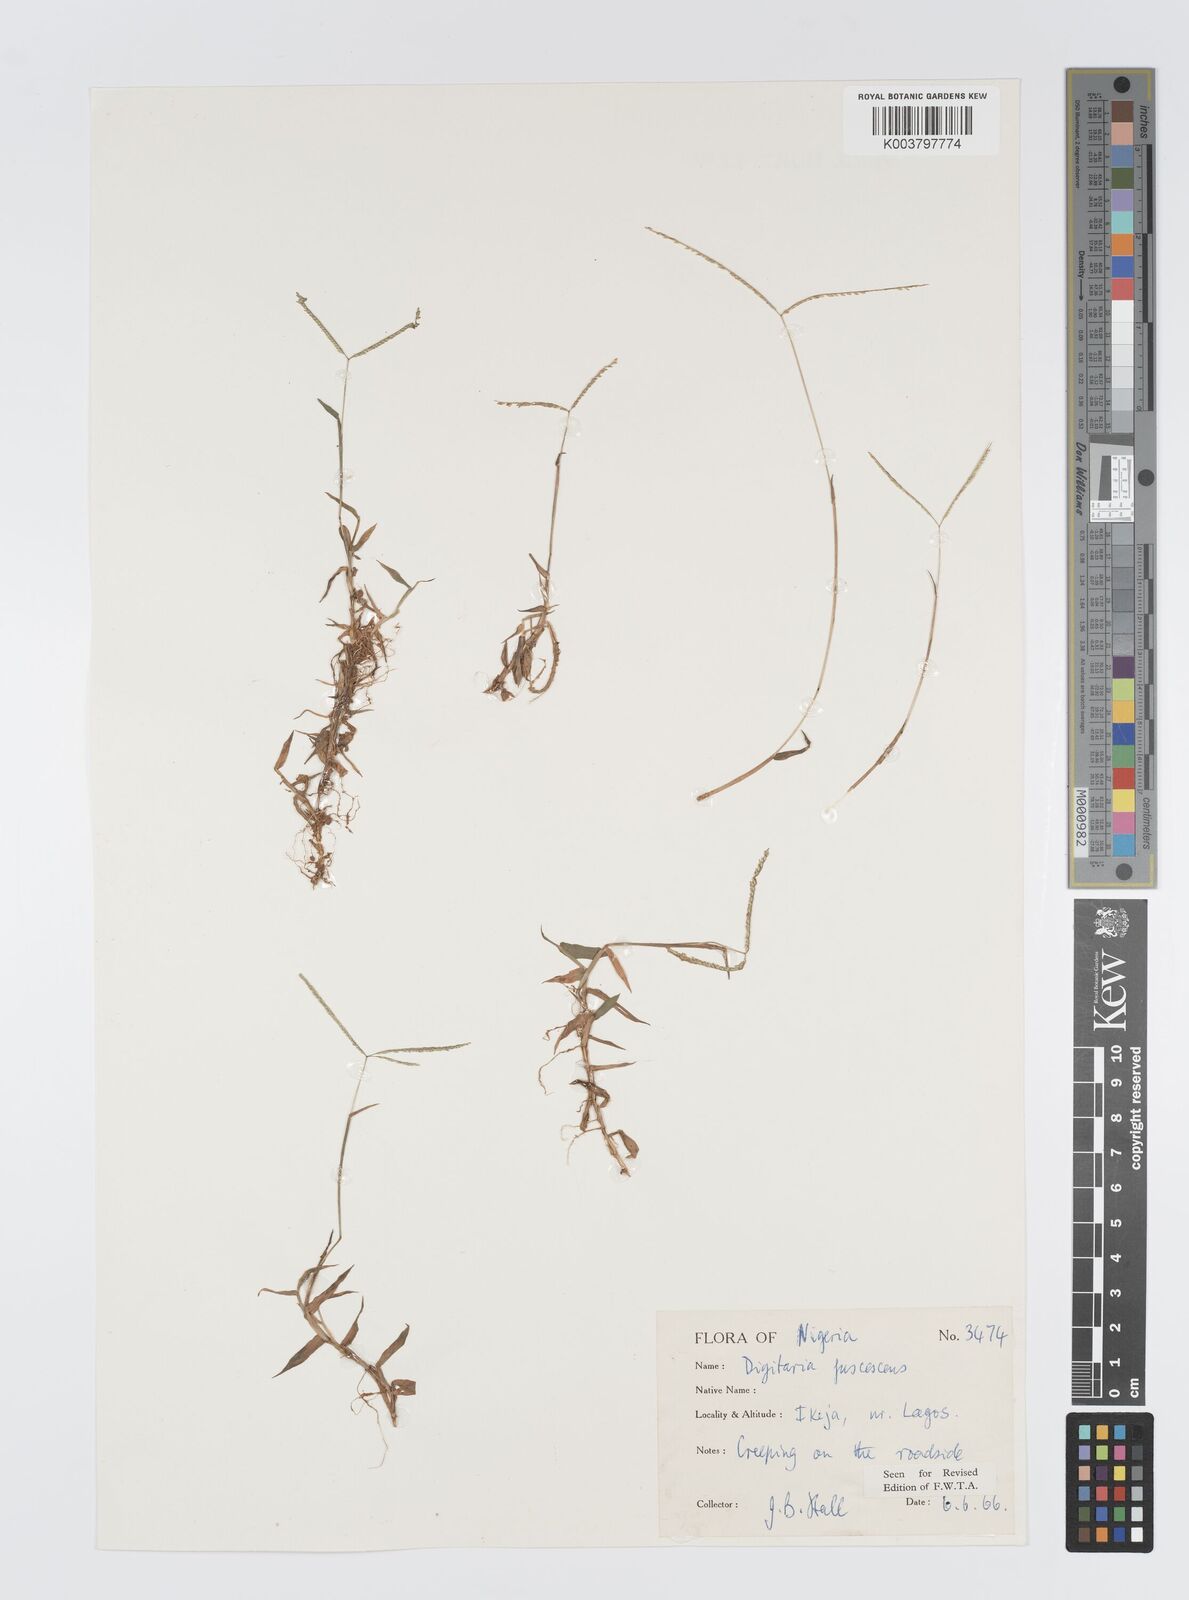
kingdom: Plantae
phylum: Tracheophyta
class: Liliopsida
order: Poales
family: Poaceae
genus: Digitaria
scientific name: Digitaria fuscescens
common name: Yellow crabgrass
